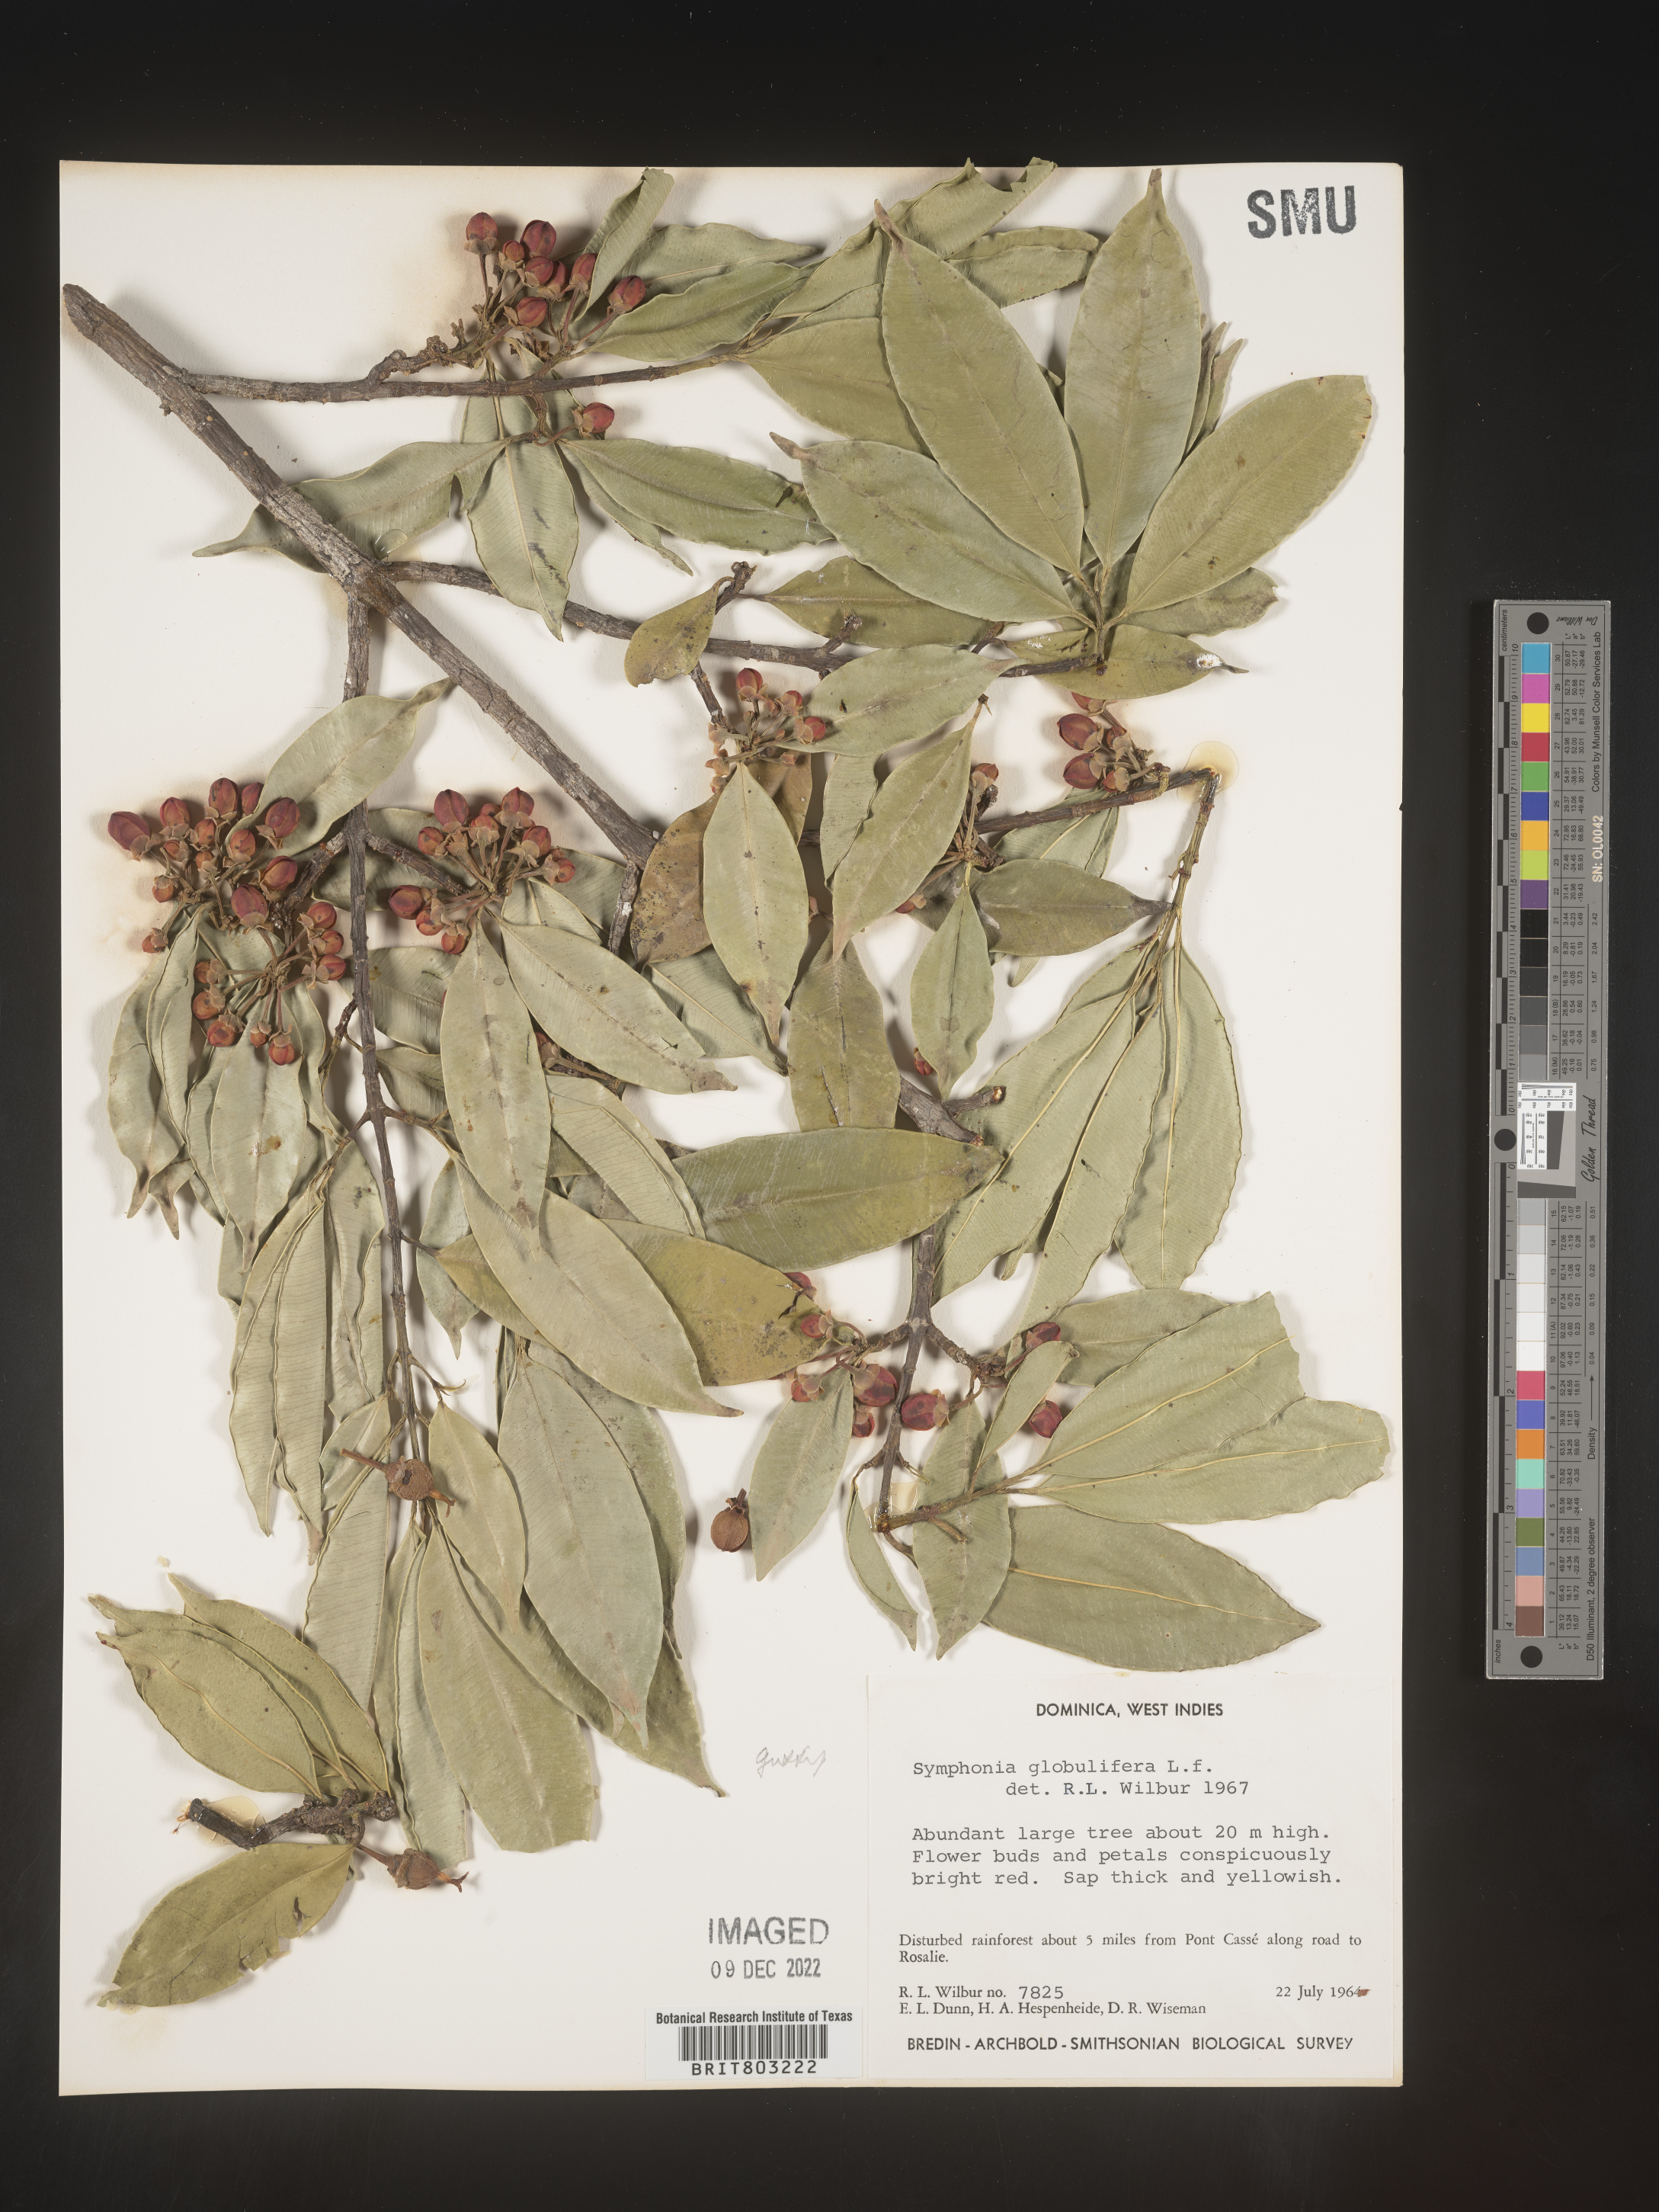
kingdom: Plantae
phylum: Tracheophyta
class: Magnoliopsida
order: Malpighiales
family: Clusiaceae
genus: Symphonia
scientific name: Symphonia
